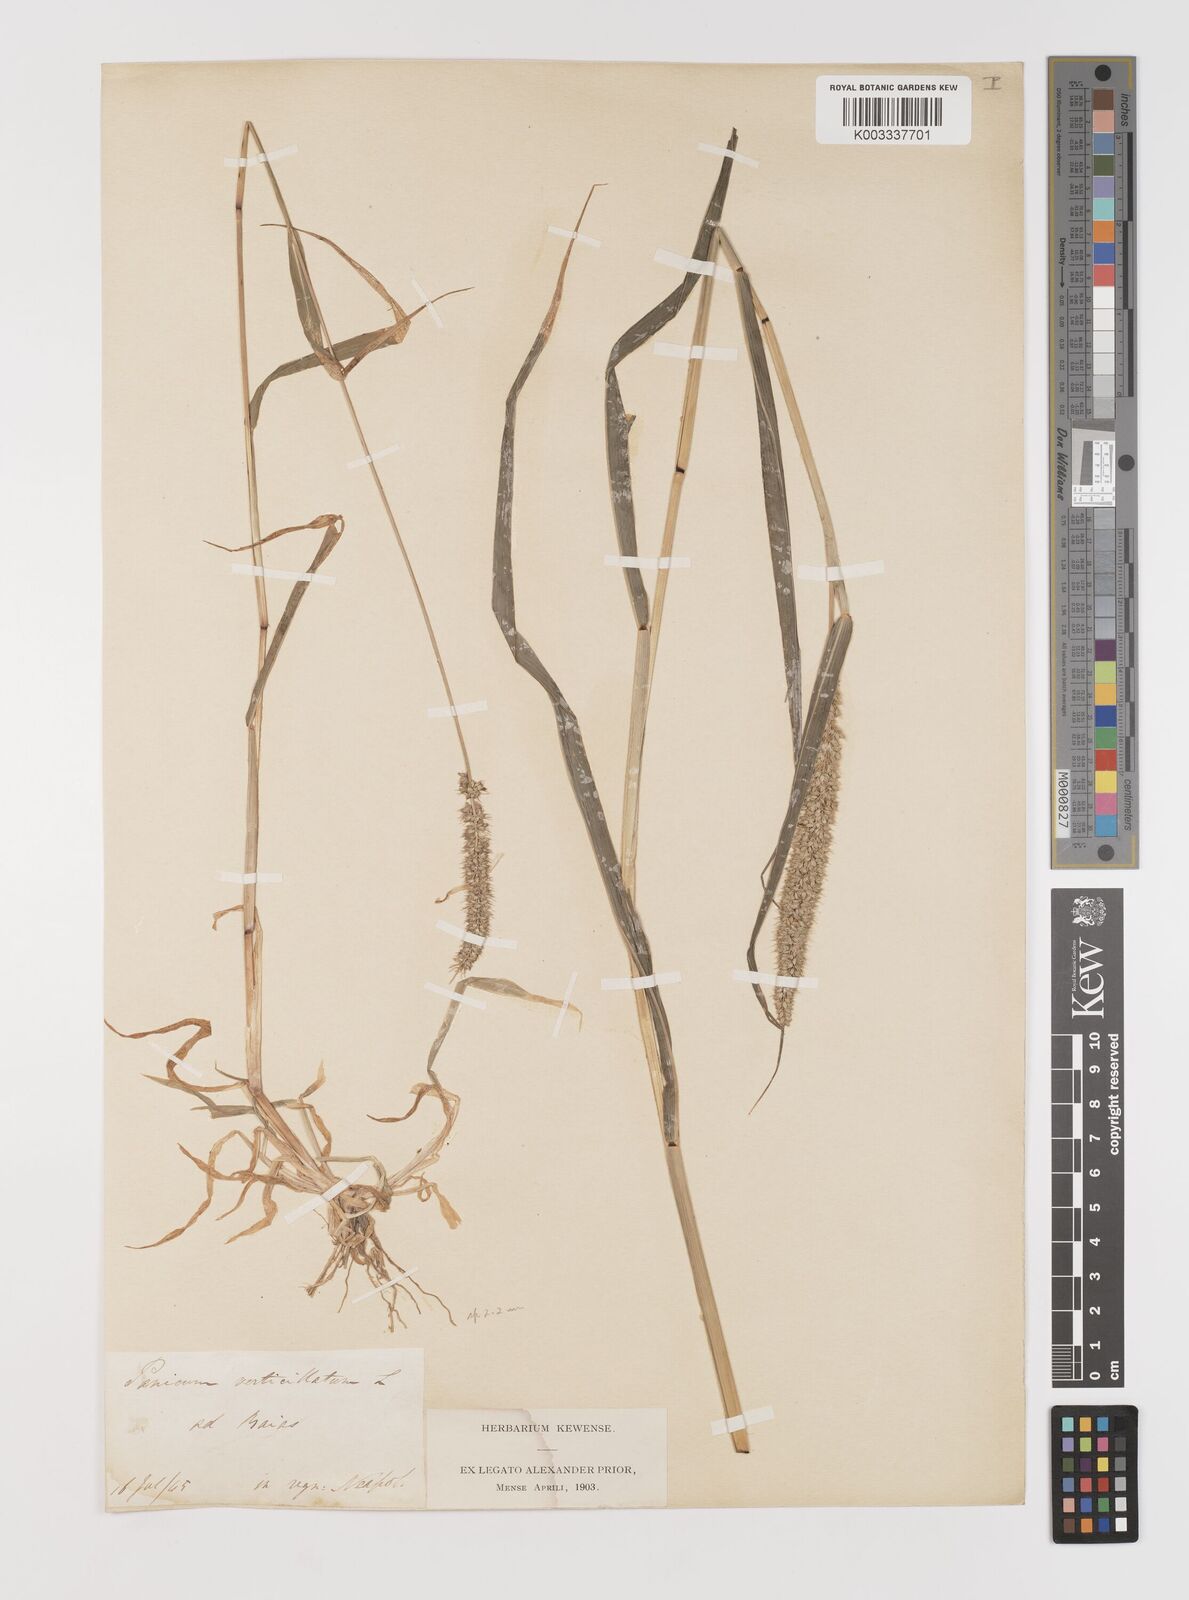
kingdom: Plantae
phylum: Tracheophyta
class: Liliopsida
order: Poales
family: Poaceae
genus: Setaria
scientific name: Setaria verticillata
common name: Hooked bristlegrass
